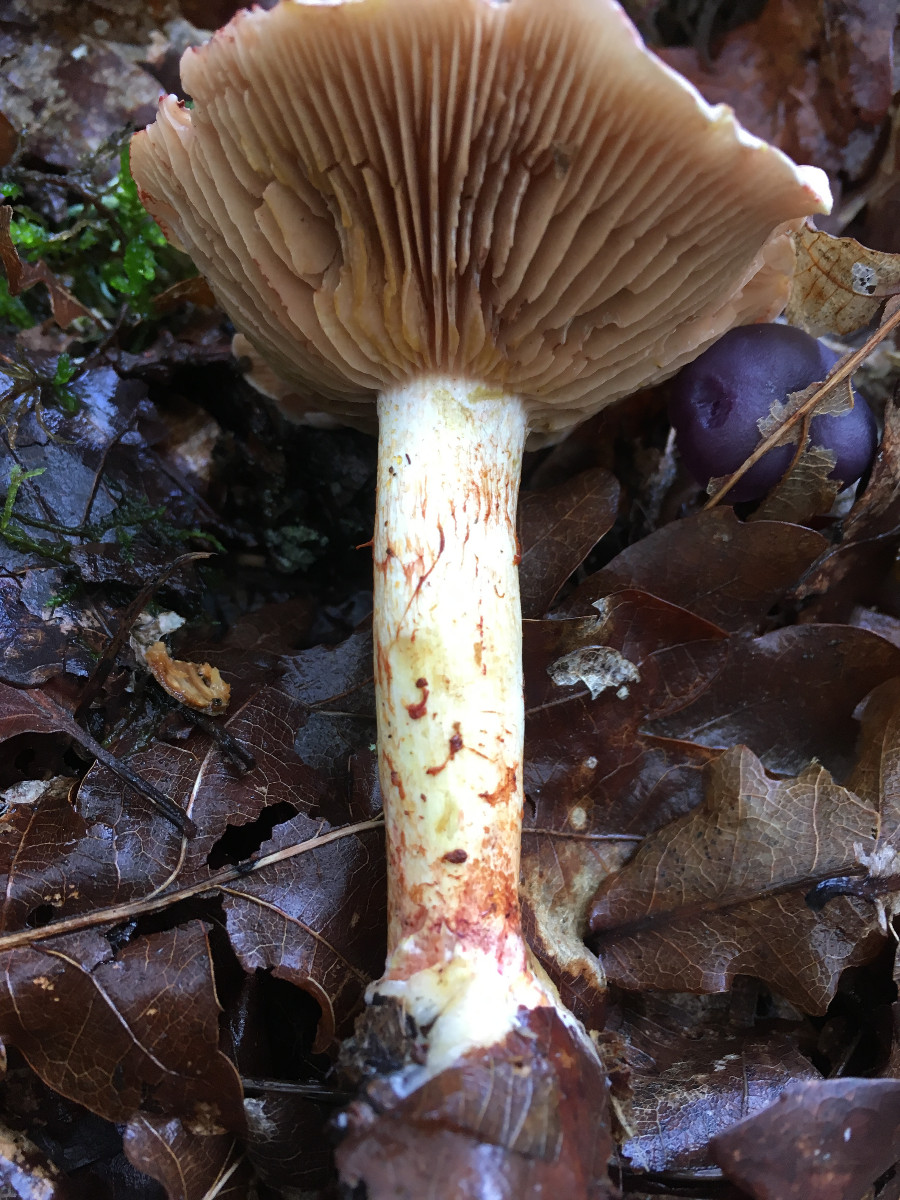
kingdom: Fungi
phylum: Basidiomycota
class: Agaricomycetes
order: Agaricales
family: Cortinariaceae
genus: Cortinarius
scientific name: Cortinarius bolaris
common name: cinnoberskællet slørhat
